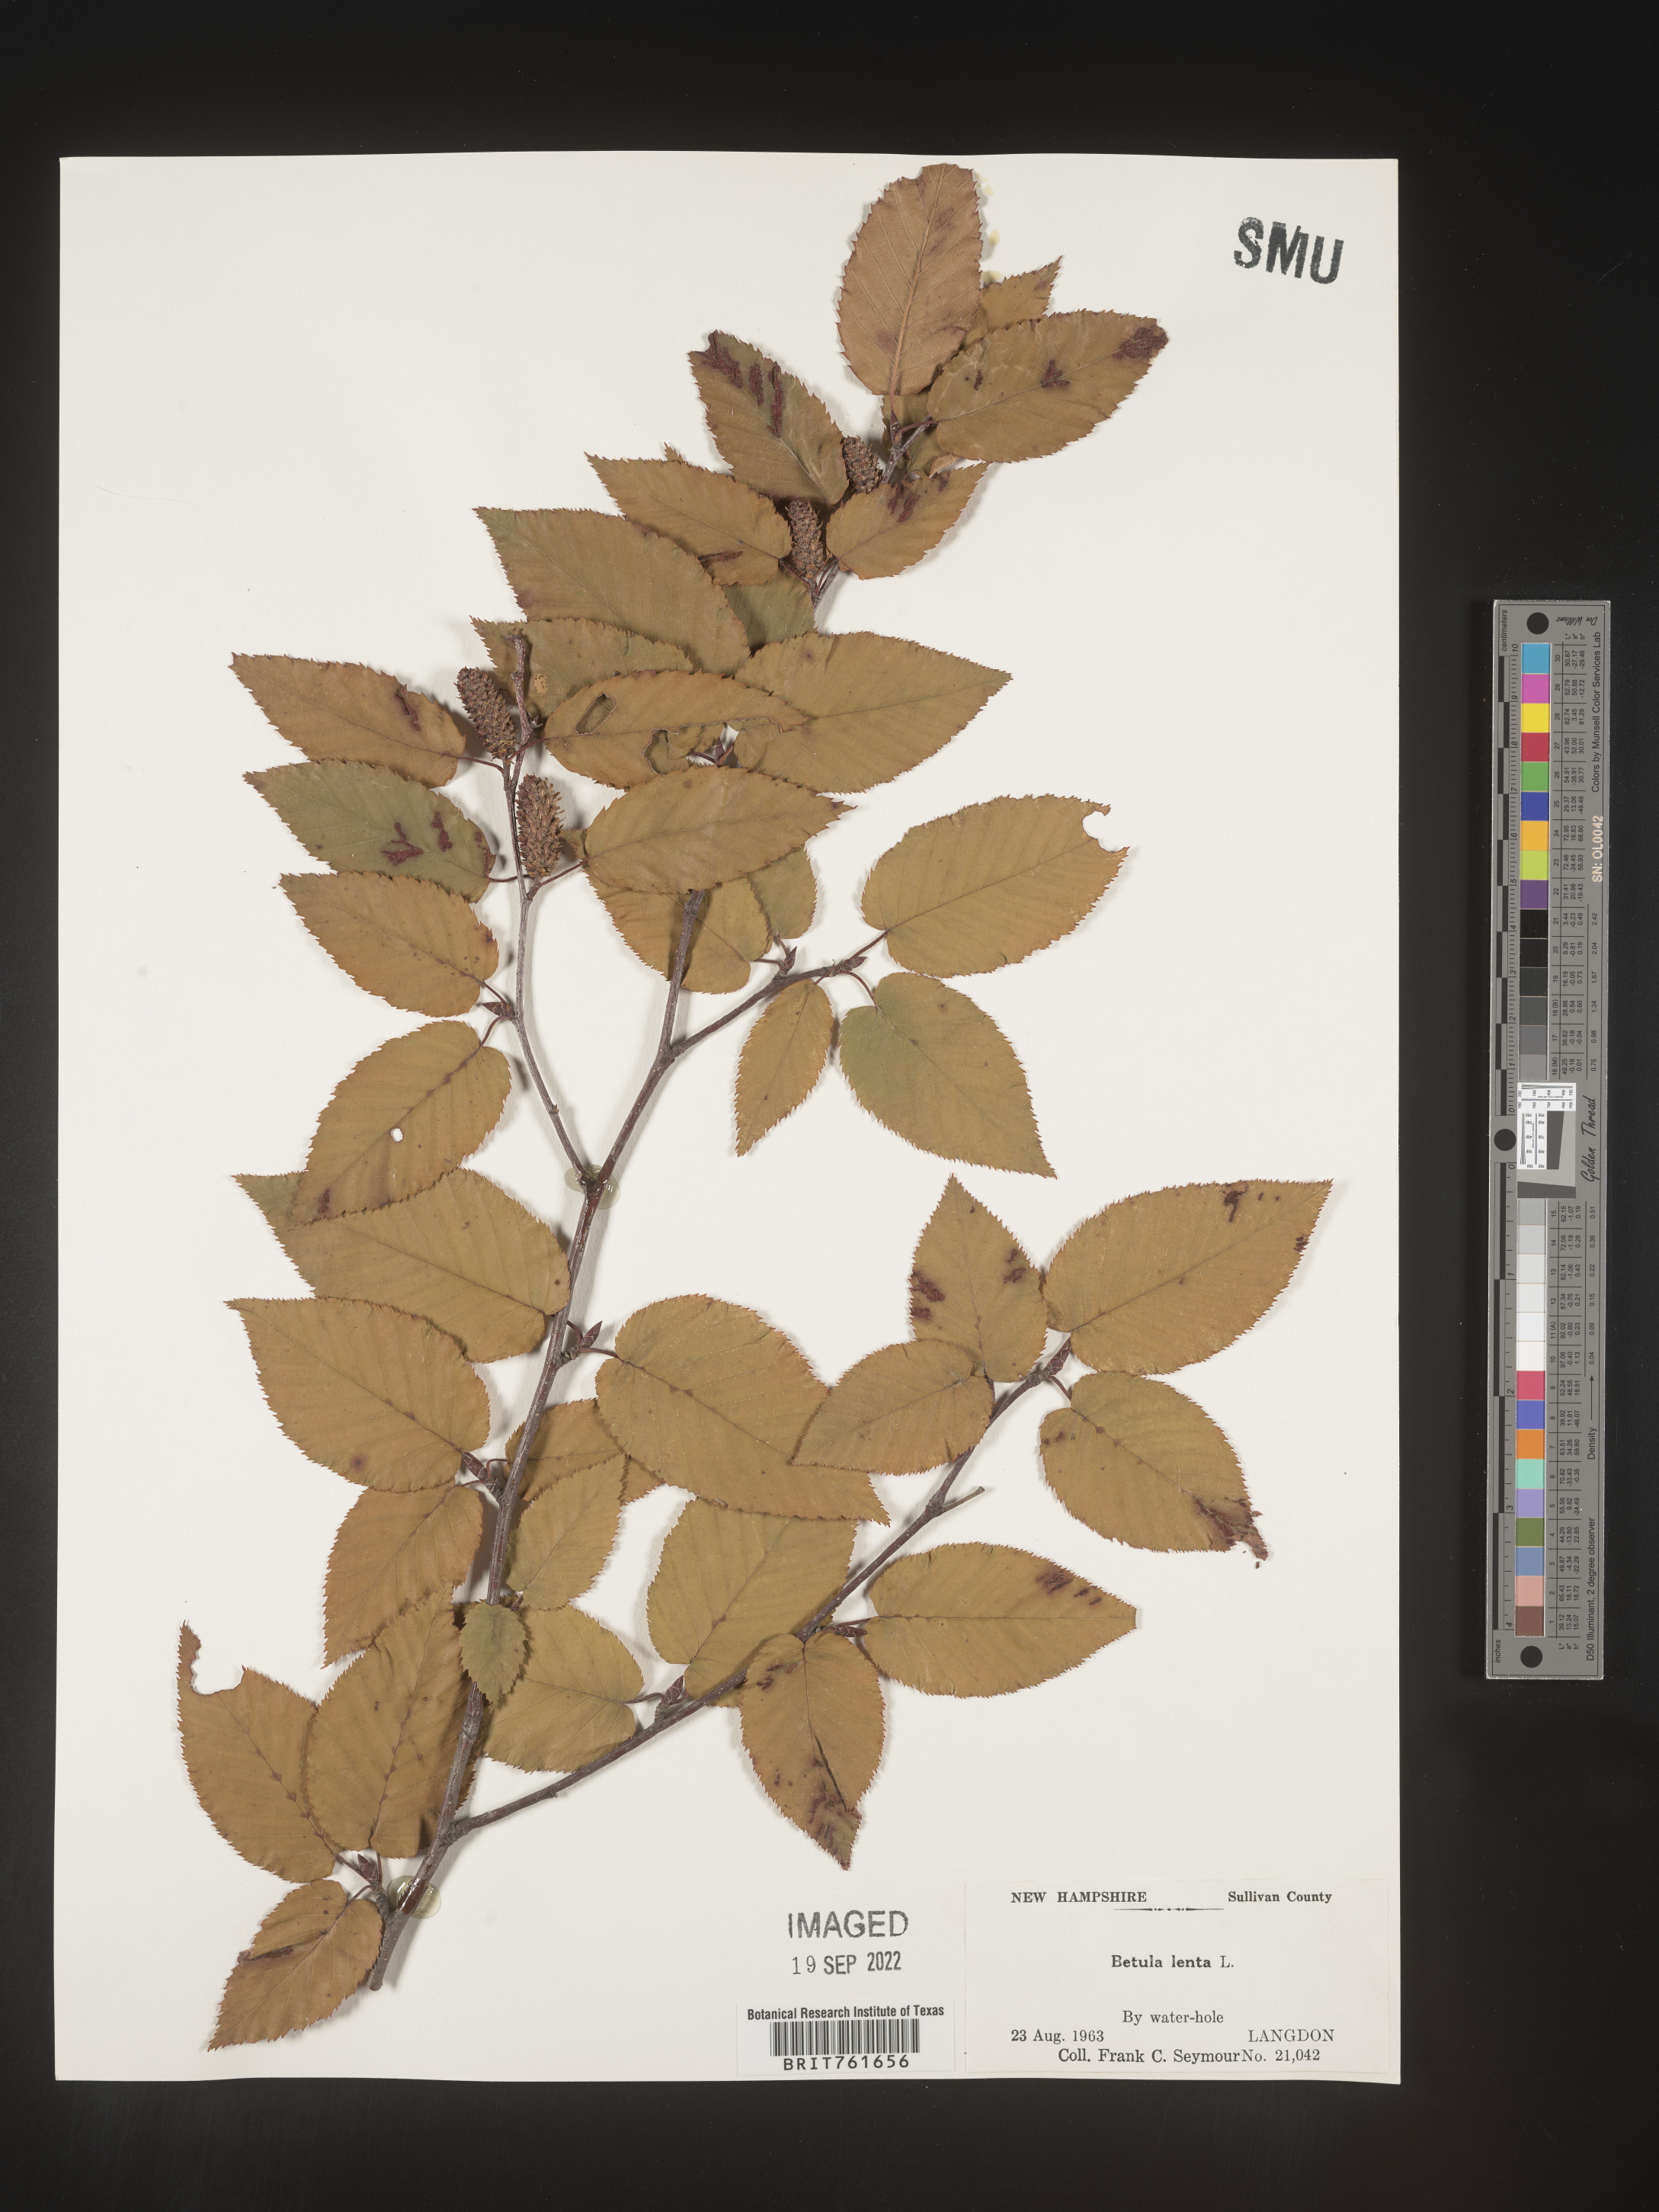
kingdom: Plantae
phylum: Tracheophyta
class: Magnoliopsida
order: Fagales
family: Betulaceae
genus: Betula
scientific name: Betula lenta
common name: Black birch
